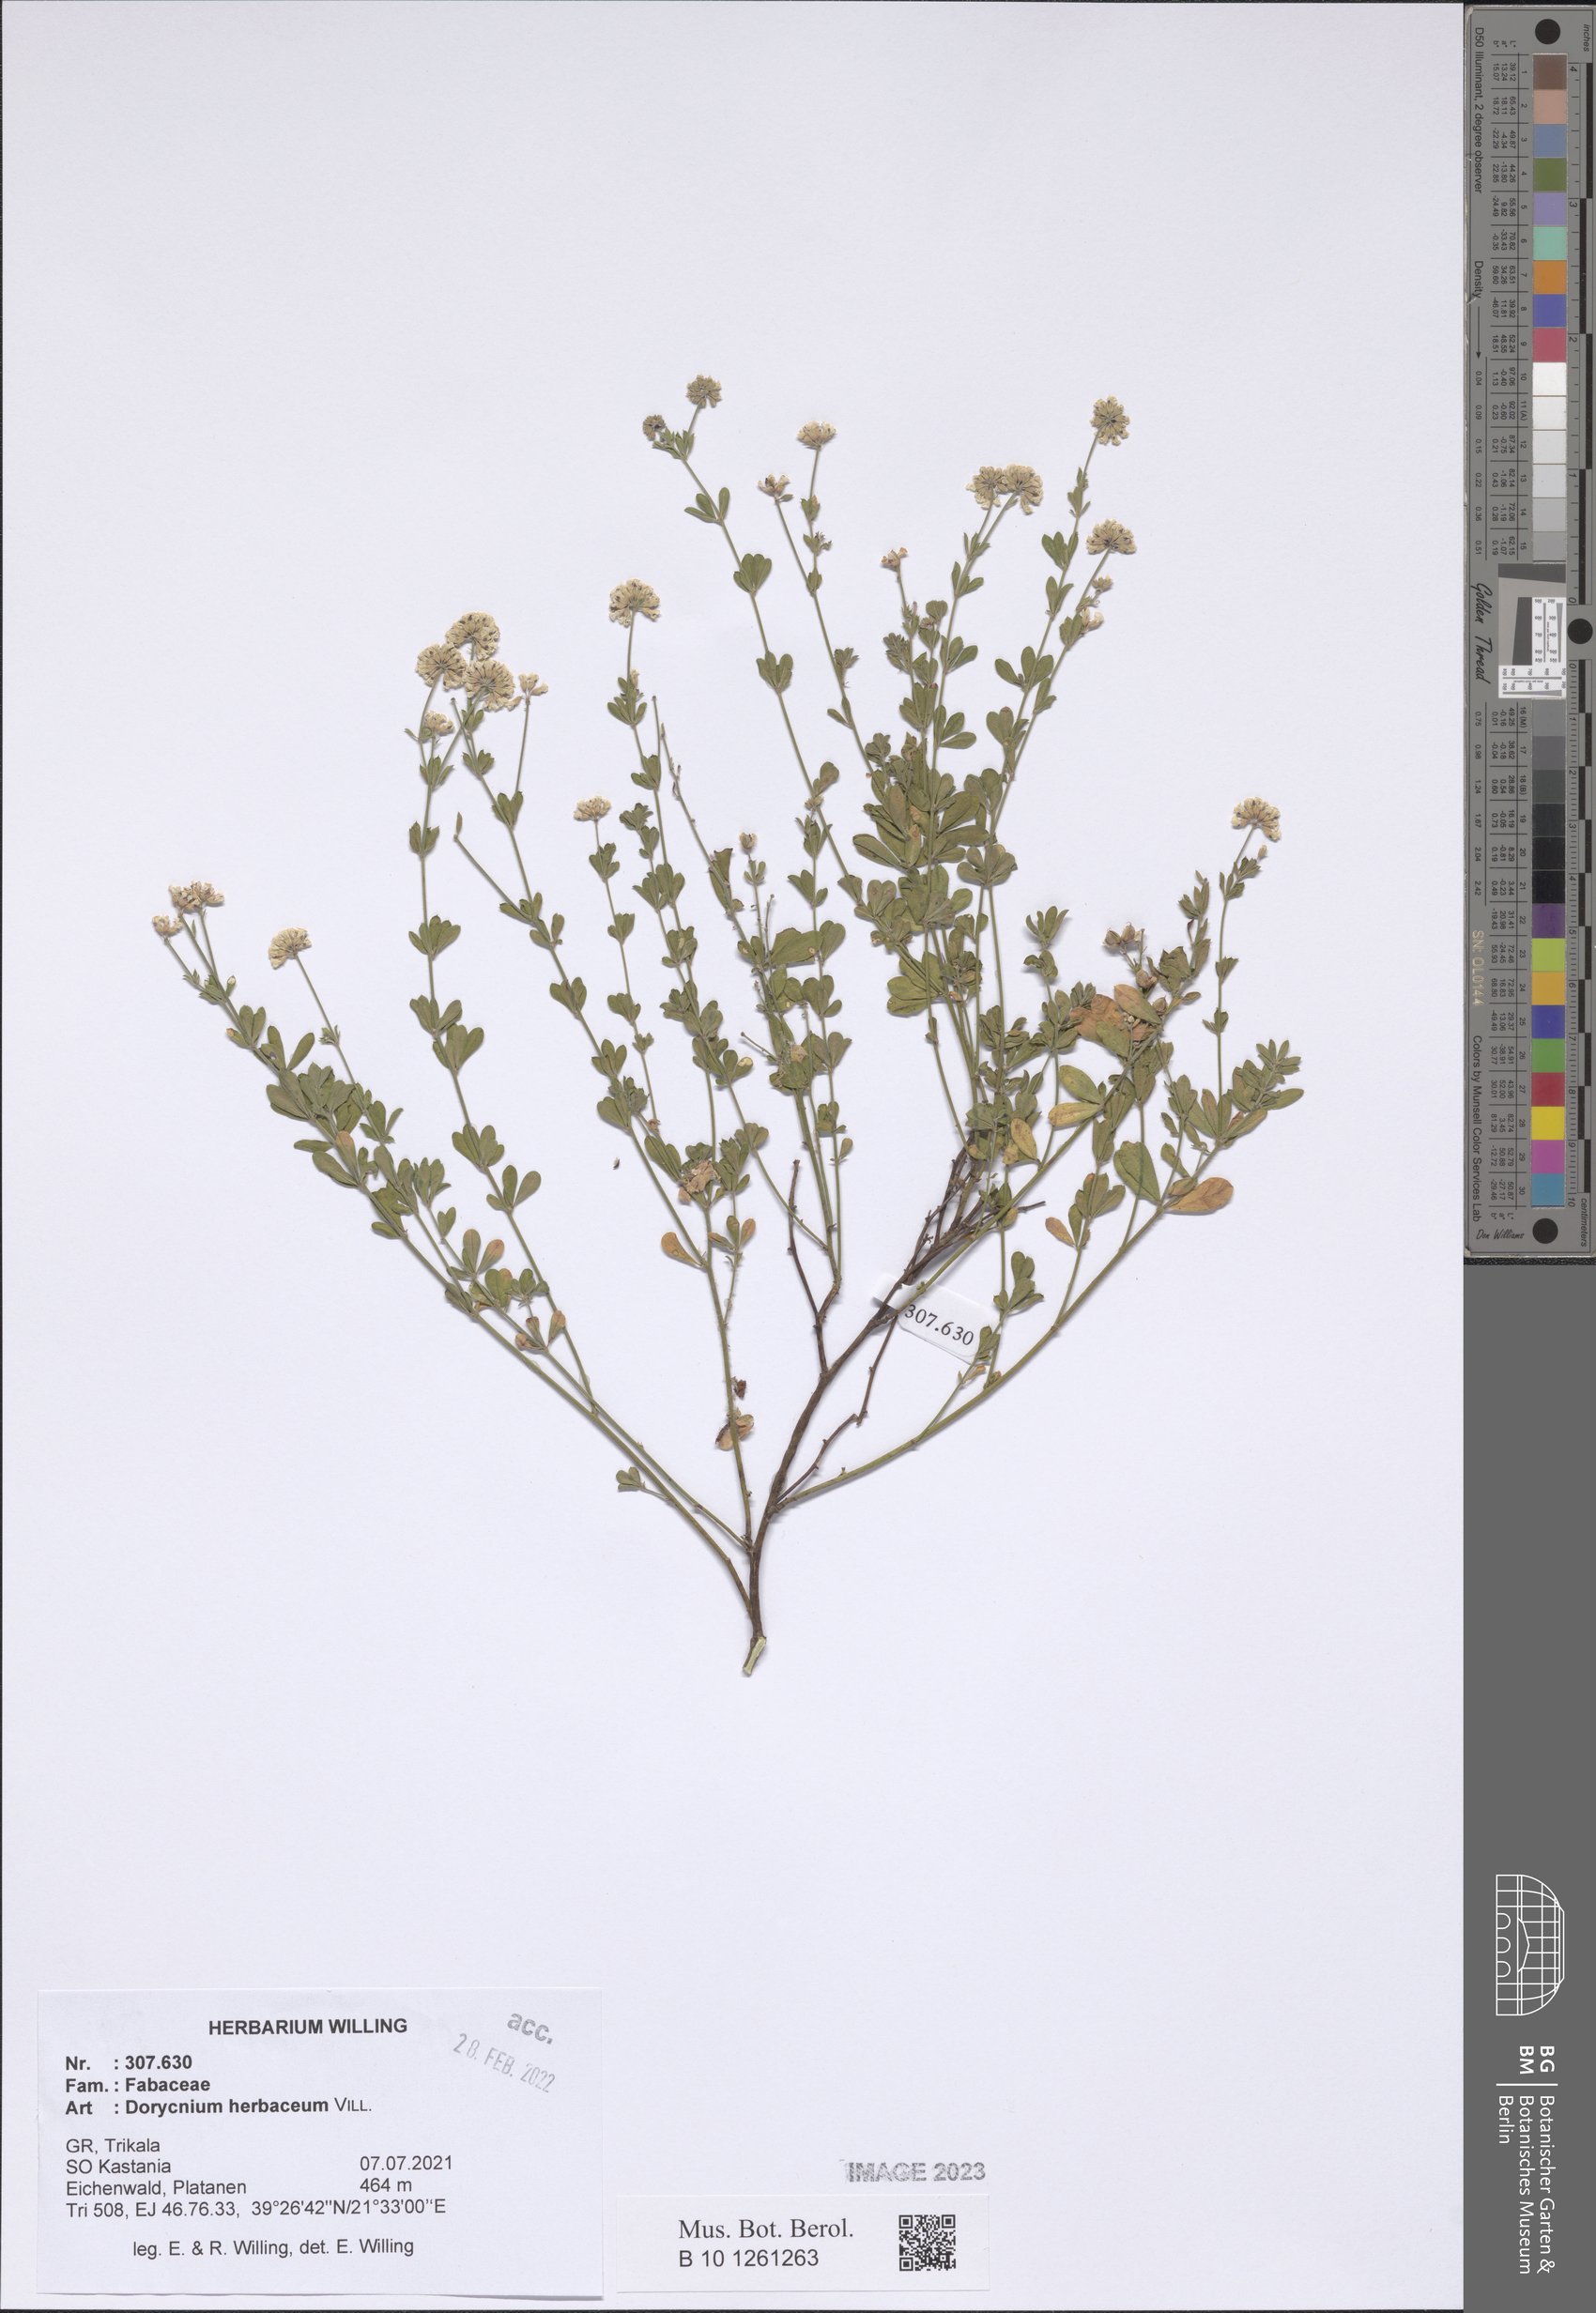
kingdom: Plantae
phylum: Tracheophyta
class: Magnoliopsida
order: Fabales
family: Fabaceae
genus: Lotus
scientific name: Lotus herbaceus
